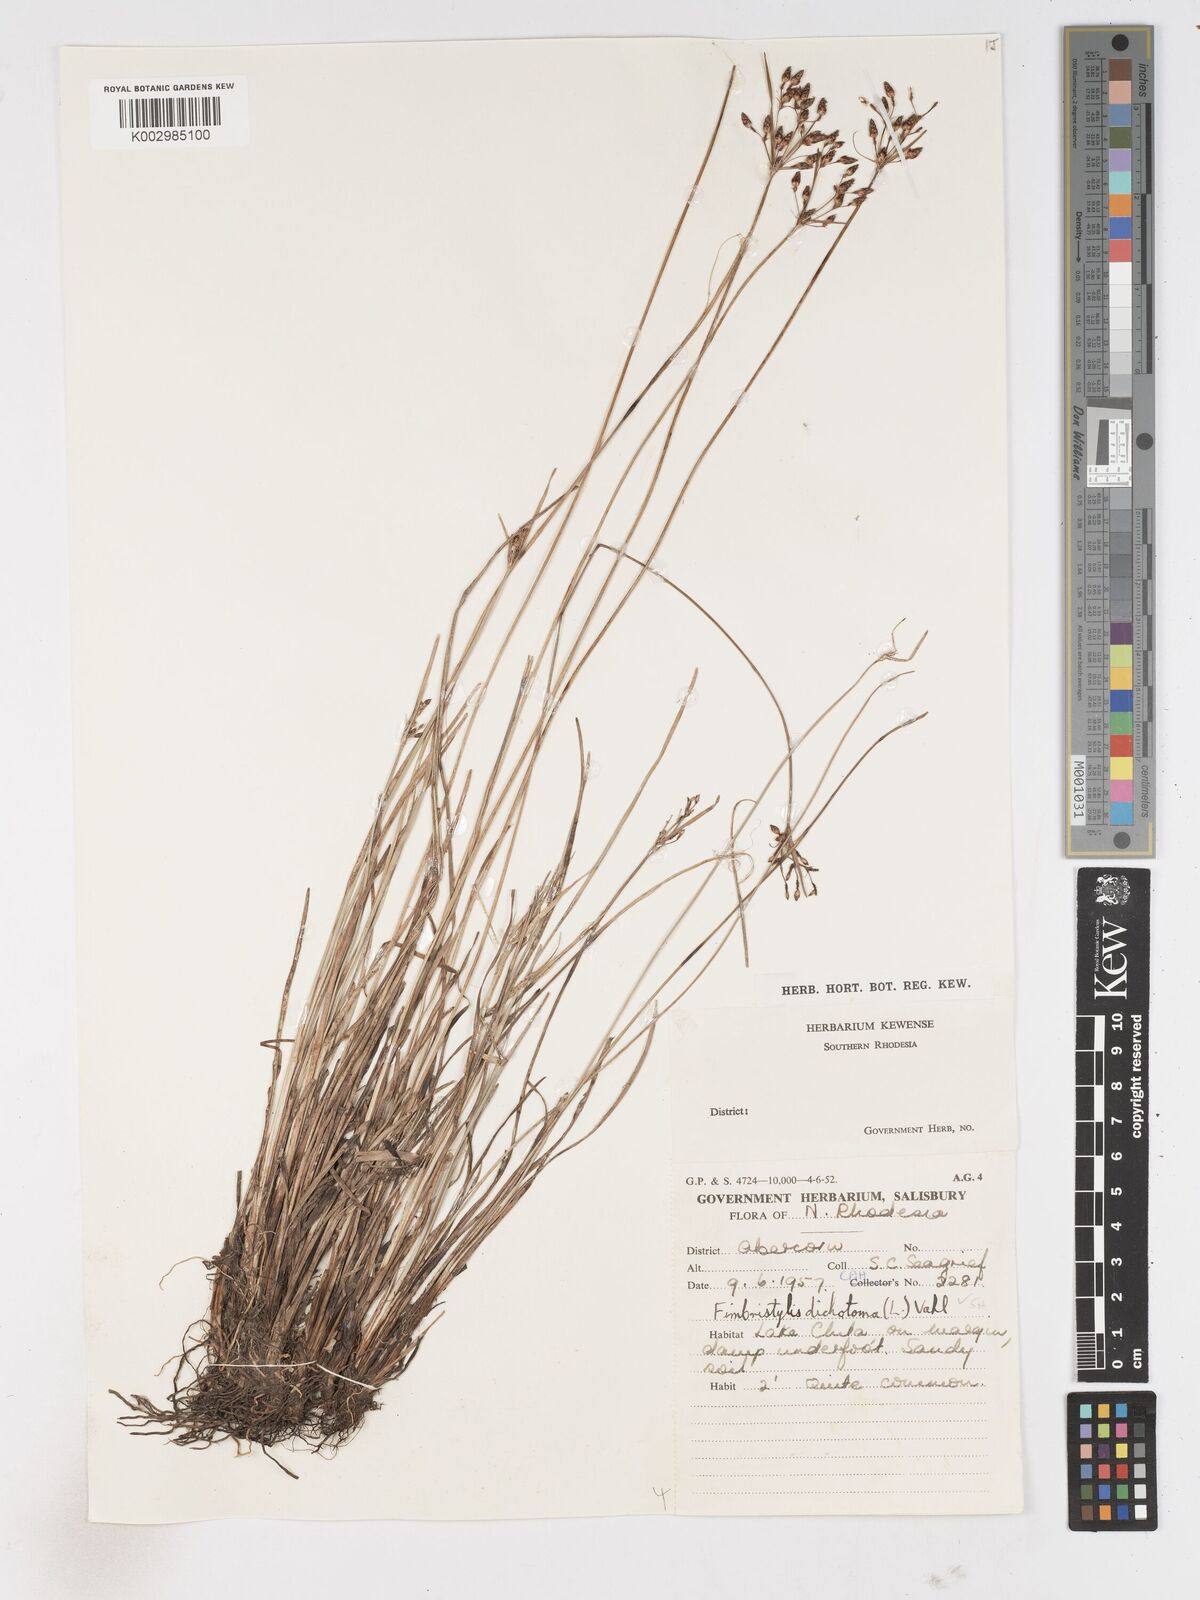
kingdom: Plantae
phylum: Tracheophyta
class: Liliopsida
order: Poales
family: Cyperaceae
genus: Fimbristylis
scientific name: Fimbristylis dichotoma
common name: Forked fimbry
